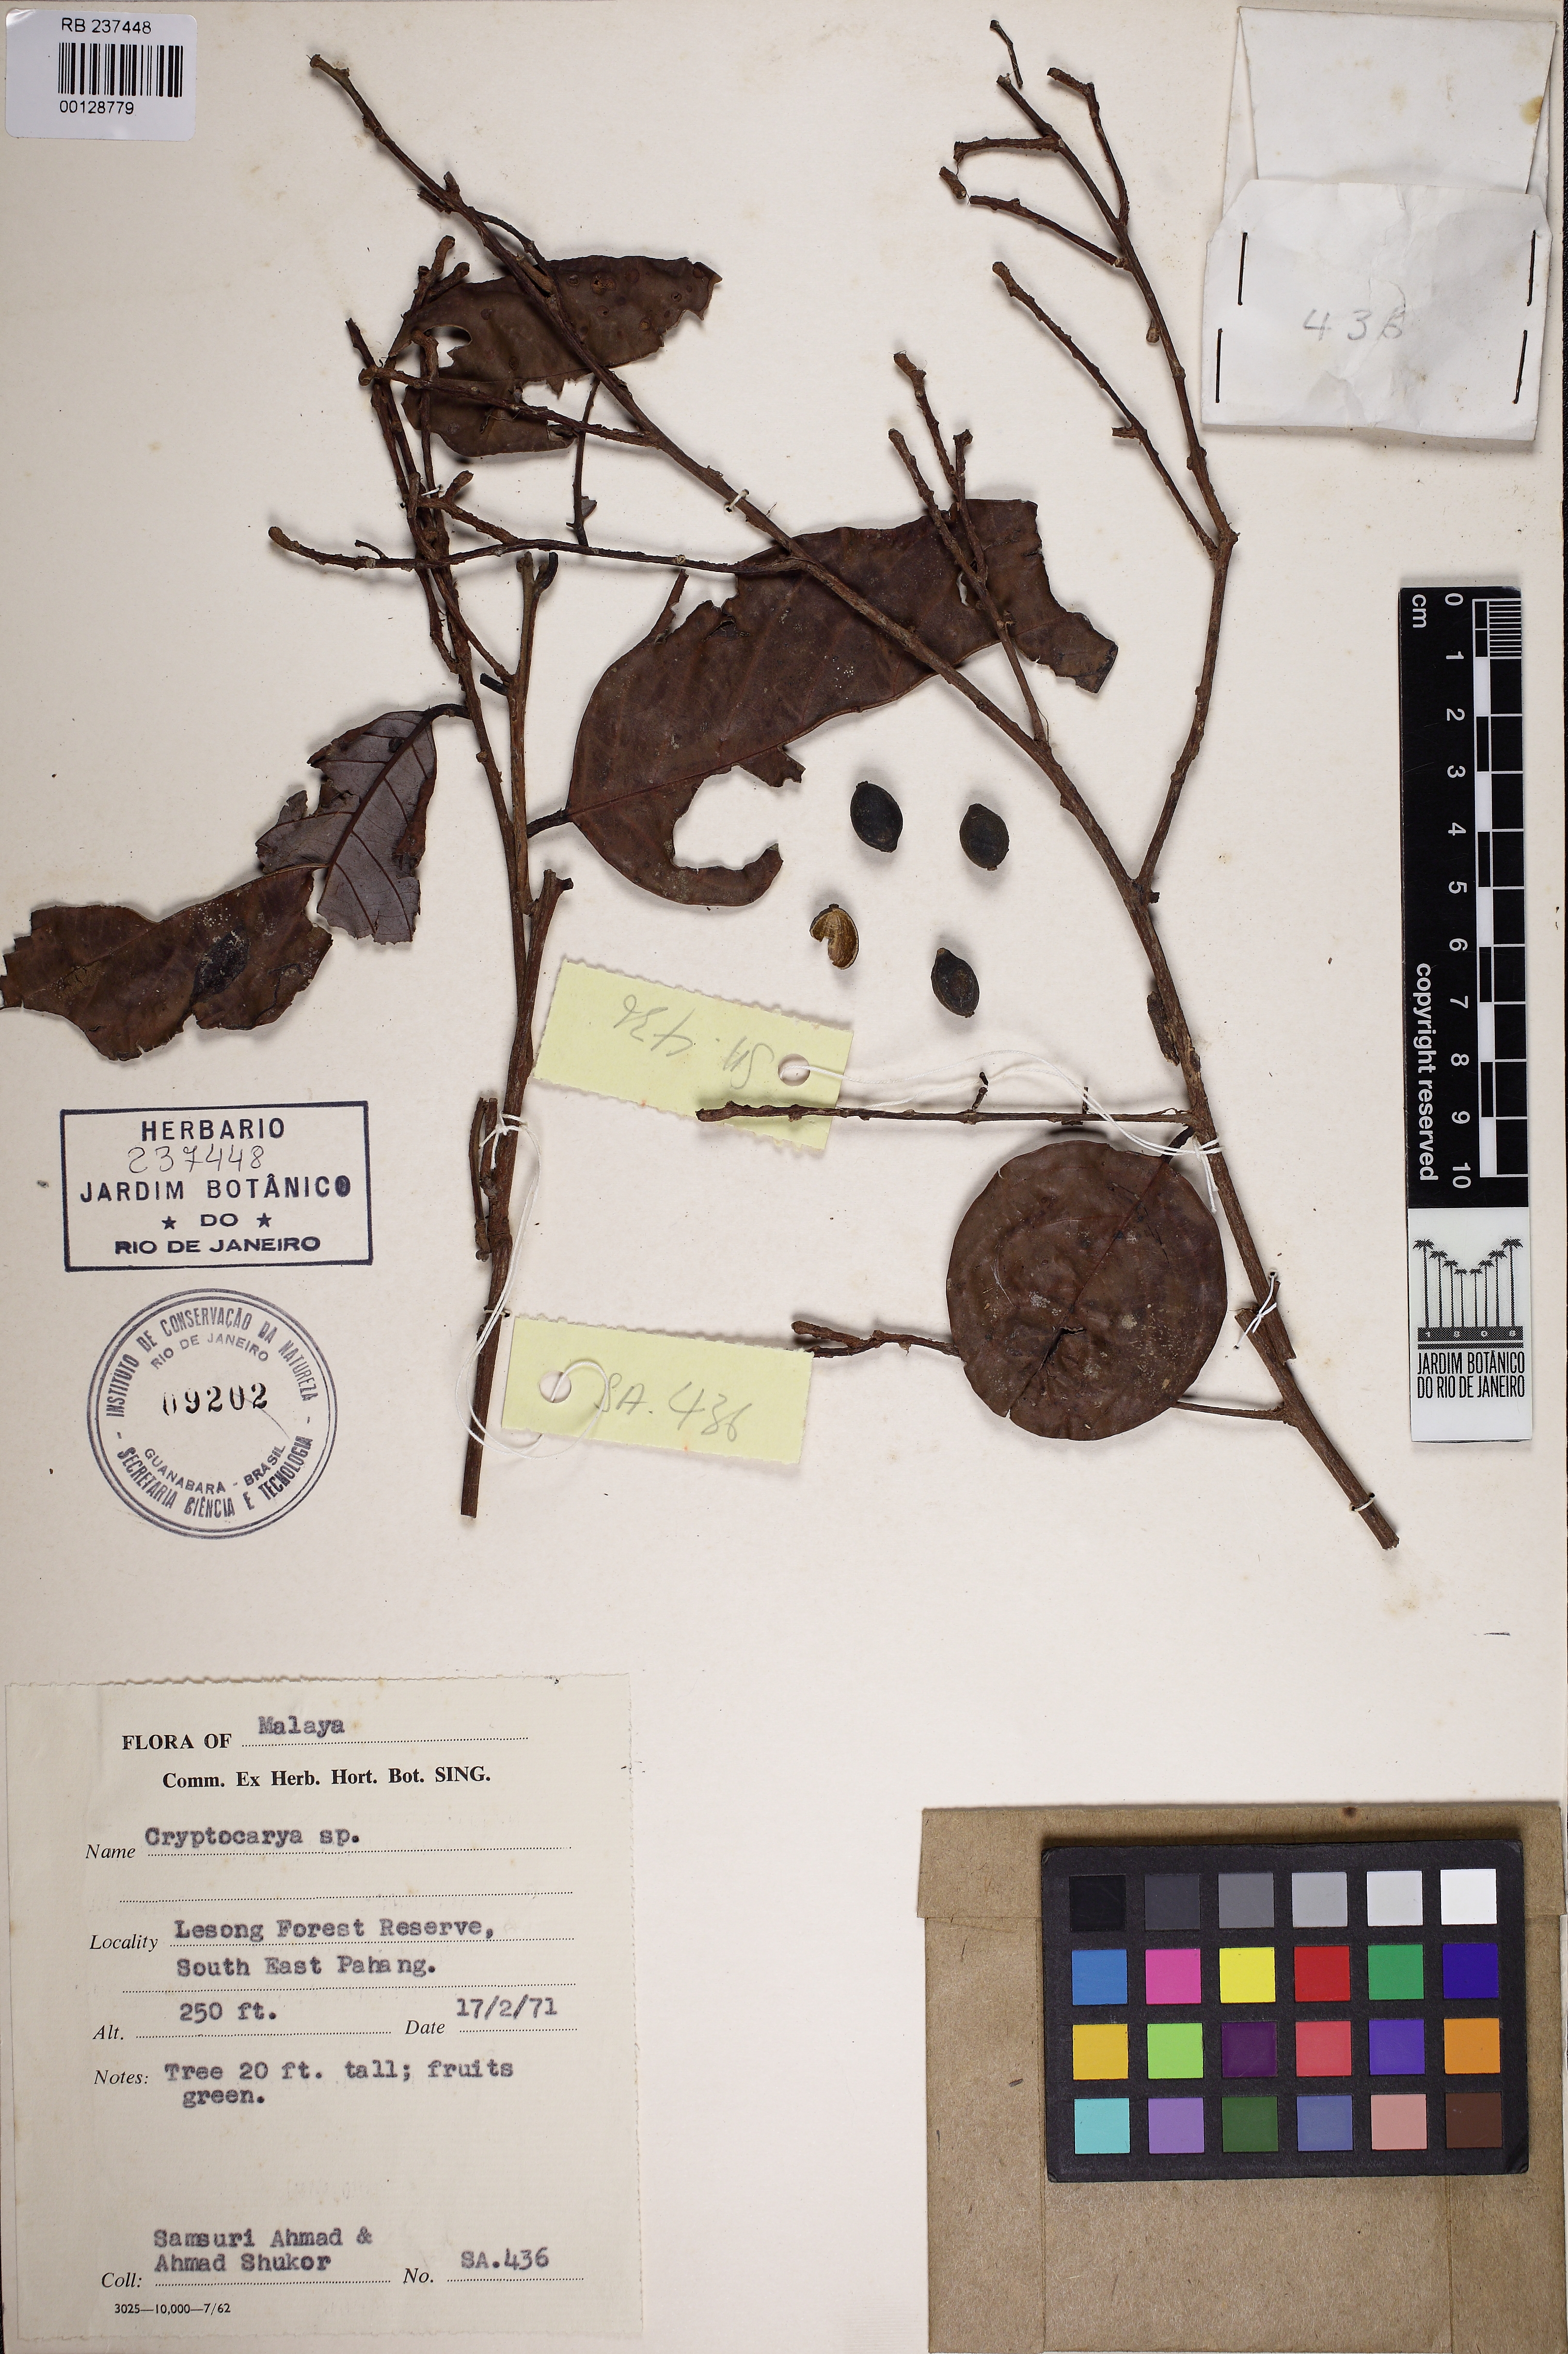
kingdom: Plantae
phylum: Tracheophyta
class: Magnoliopsida
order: Laurales
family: Lauraceae
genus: Cryptocarya
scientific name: Cryptocarya
